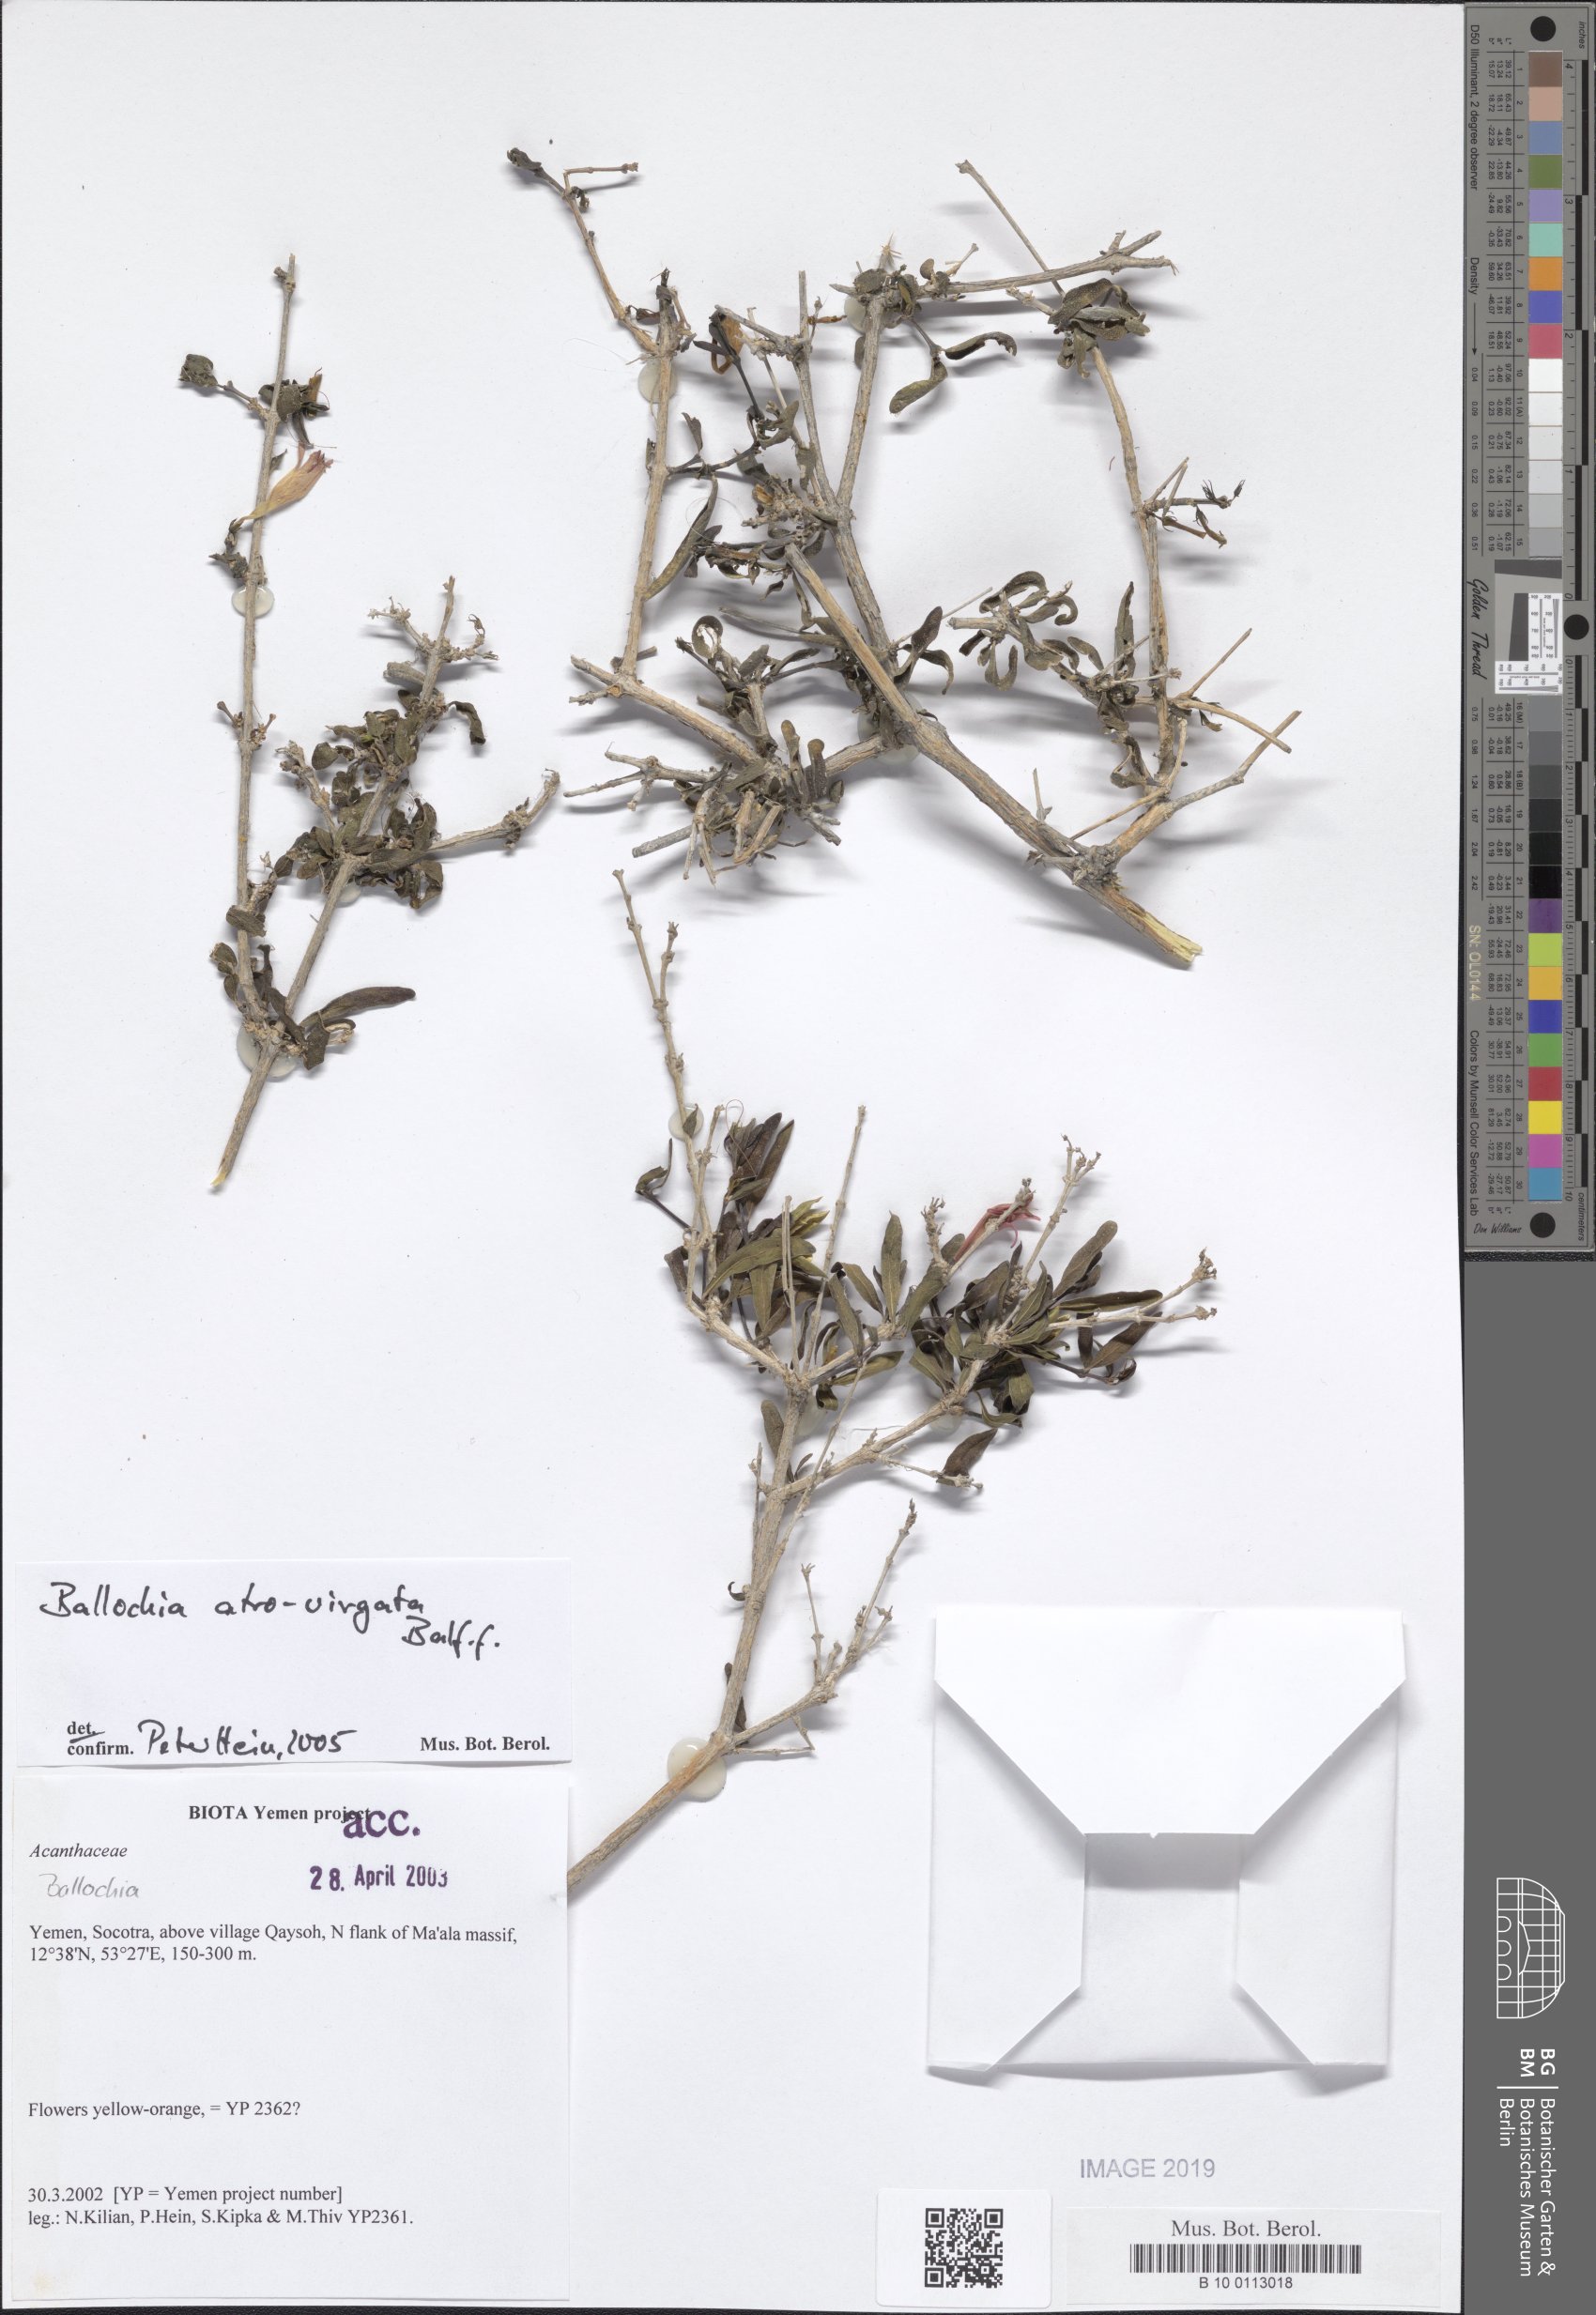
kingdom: Plantae
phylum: Tracheophyta
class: Magnoliopsida
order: Lamiales
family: Acanthaceae
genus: Ballochia
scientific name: Ballochia atrovirgata
